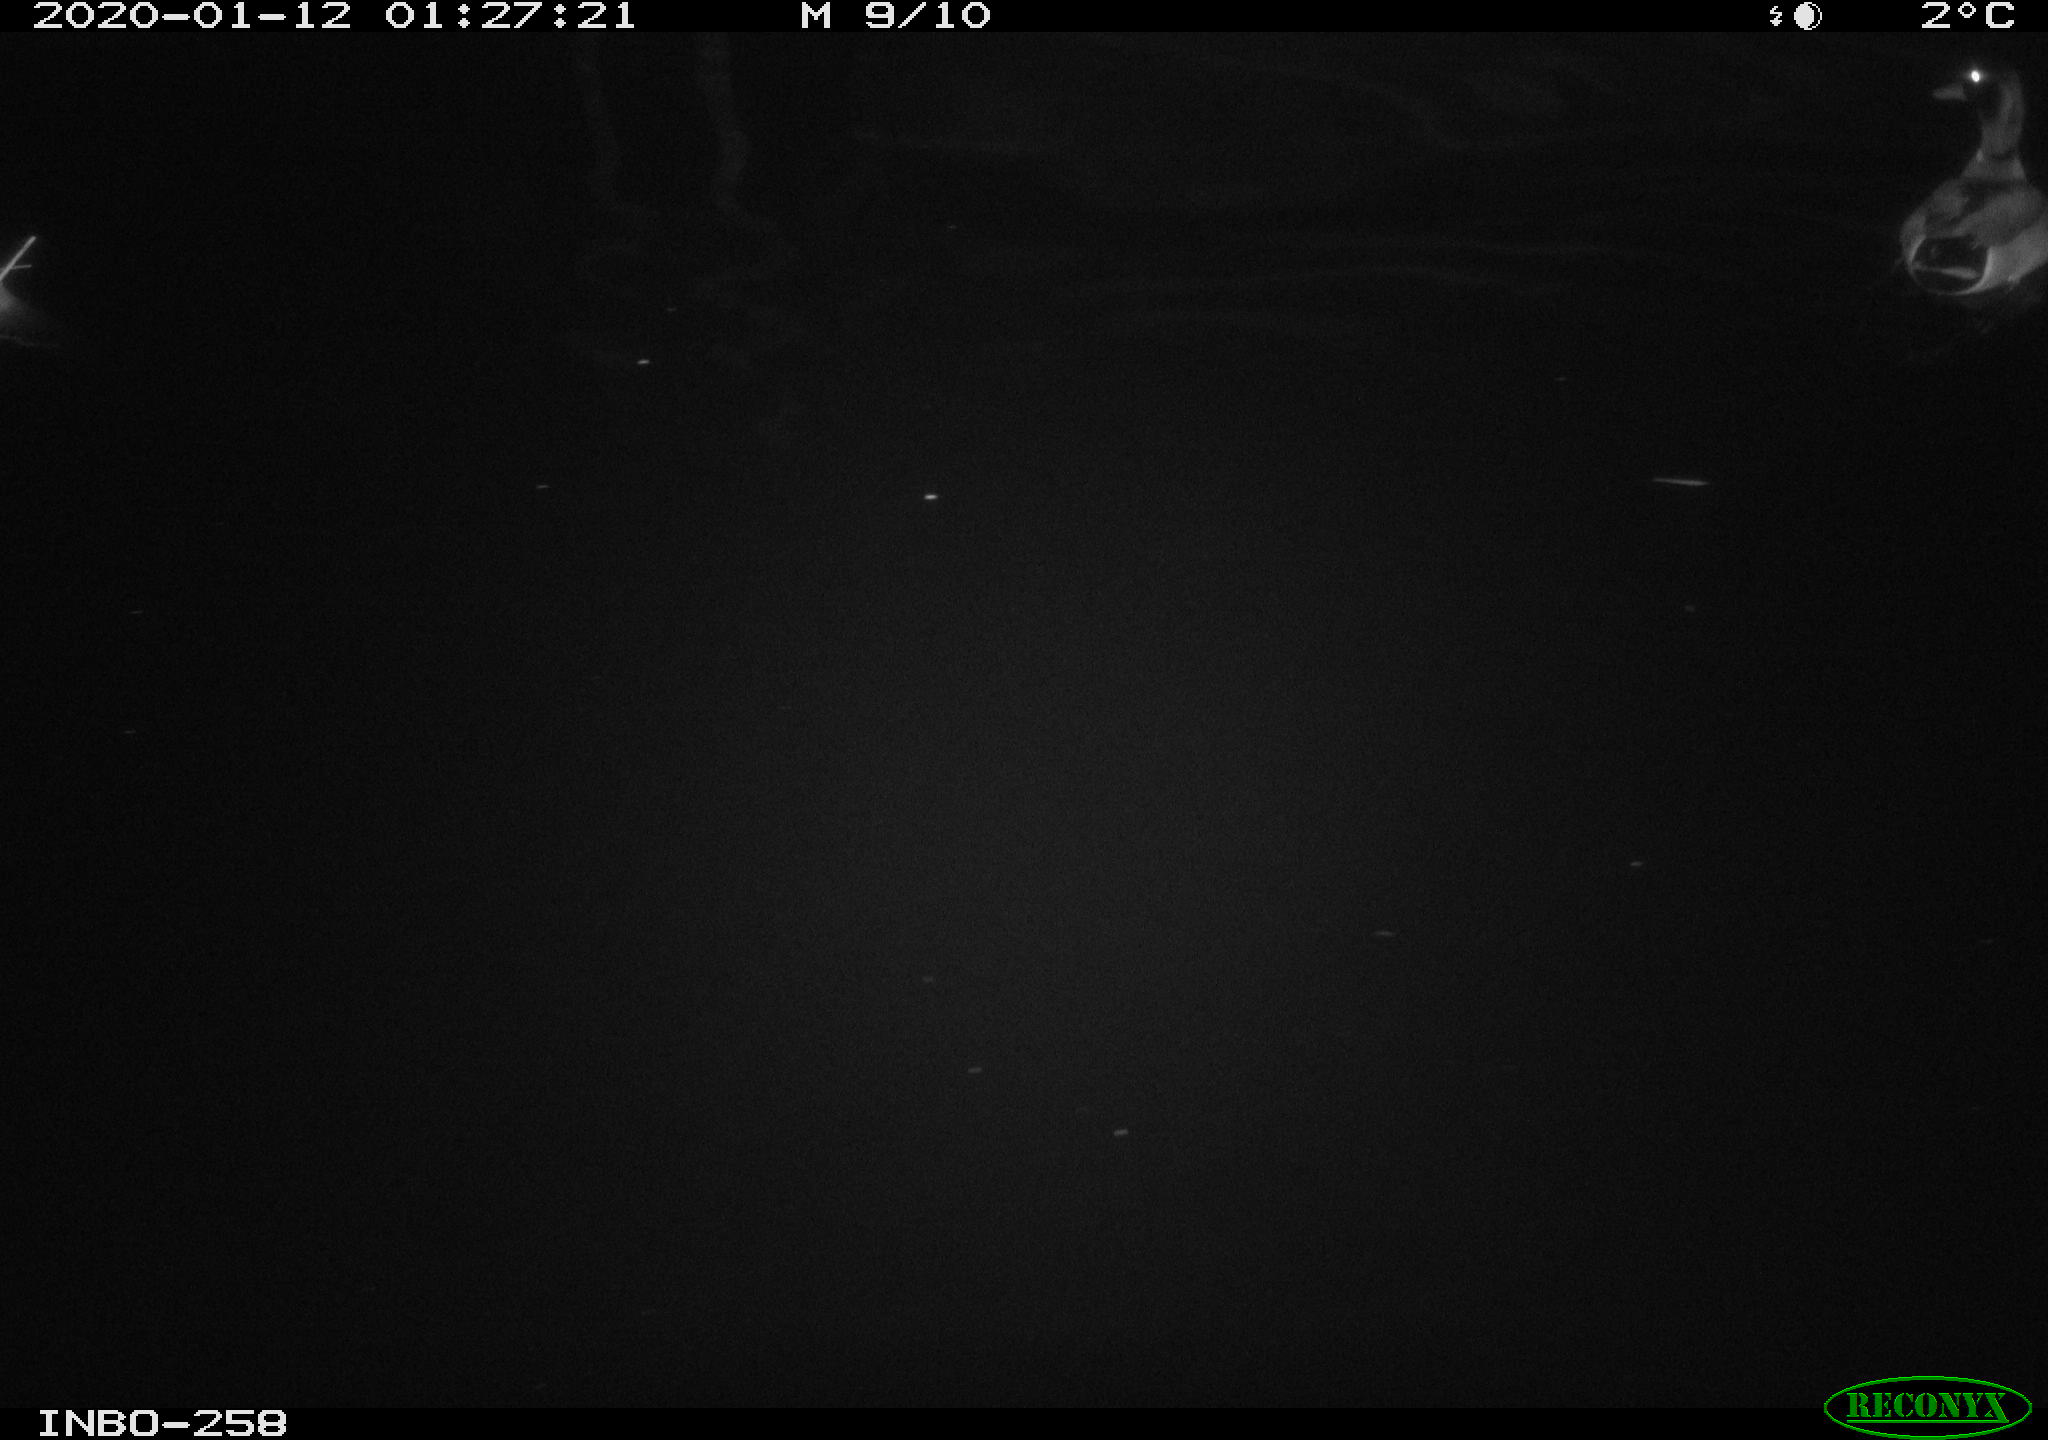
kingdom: Animalia
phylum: Chordata
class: Aves
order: Anseriformes
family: Anatidae
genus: Anas
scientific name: Anas platyrhynchos
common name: Mallard
